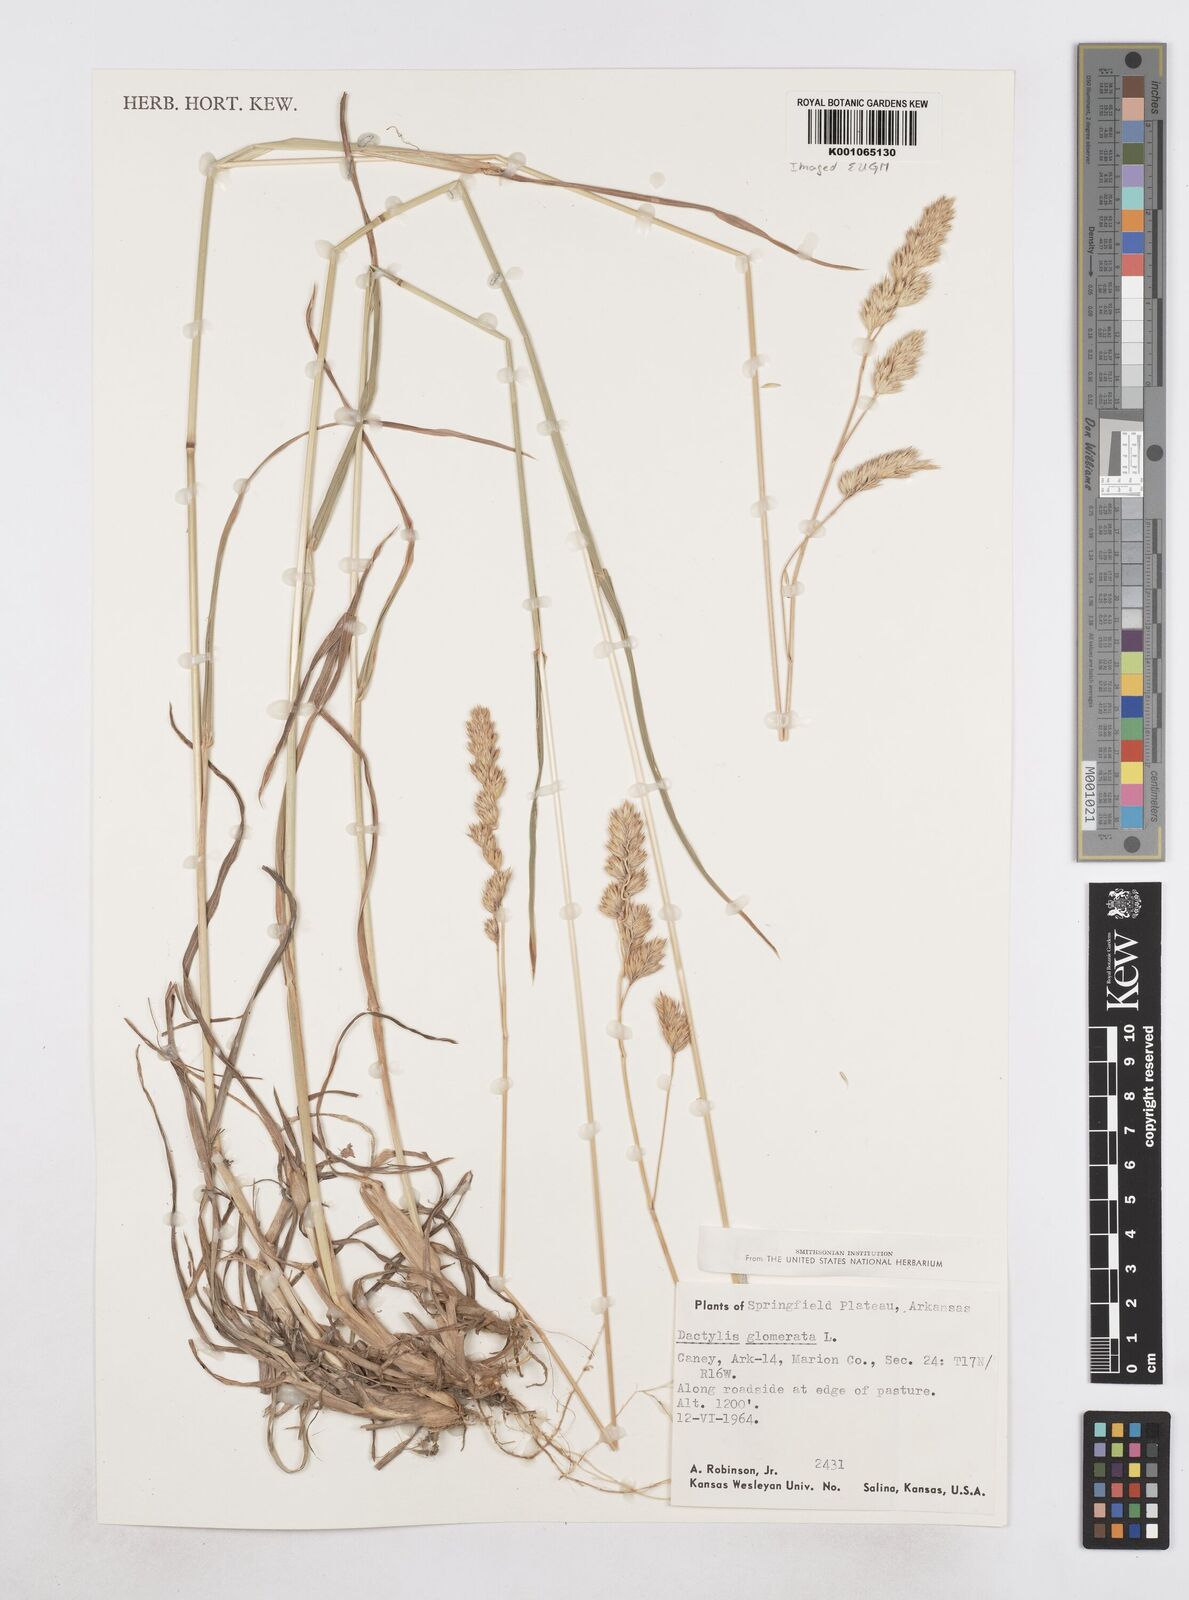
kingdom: Plantae
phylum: Tracheophyta
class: Liliopsida
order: Poales
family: Poaceae
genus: Dactylis
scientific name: Dactylis glomerata
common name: Orchardgrass
